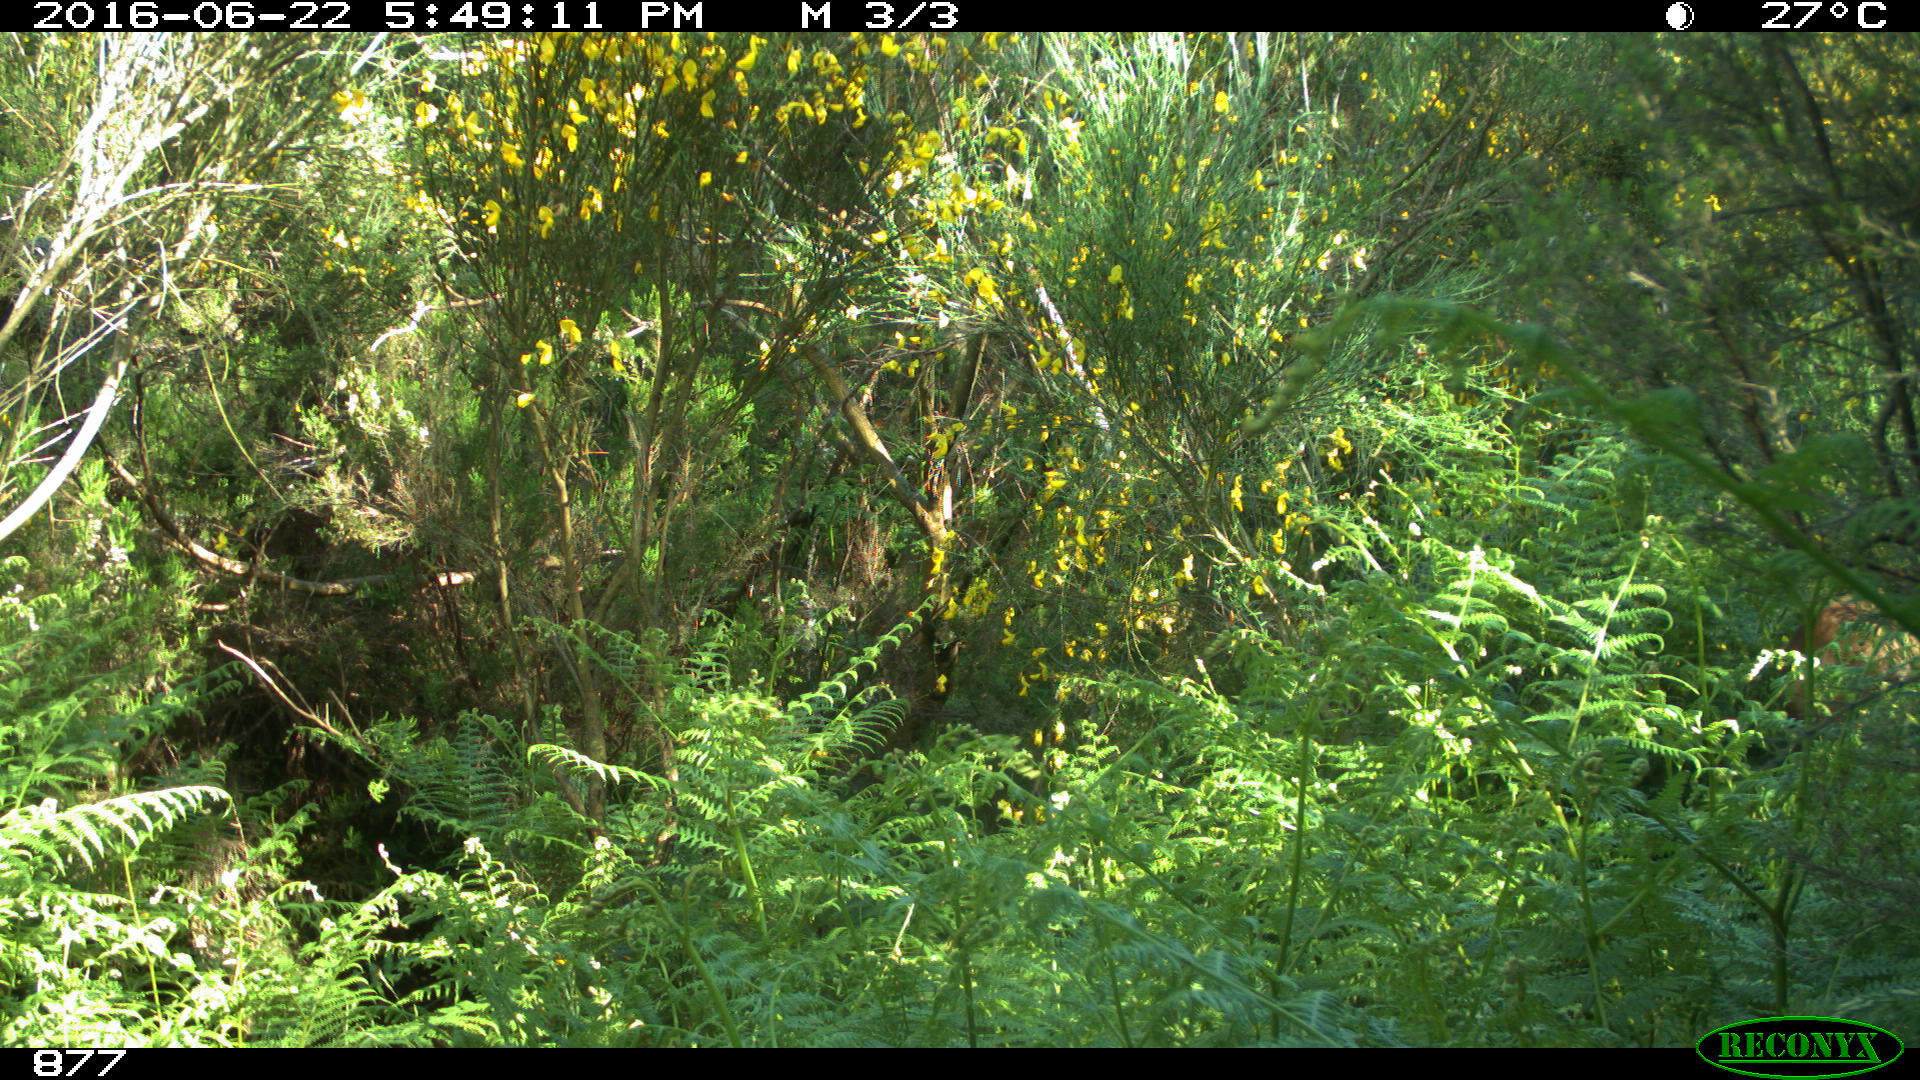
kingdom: Animalia
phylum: Chordata
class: Mammalia
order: Artiodactyla
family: Cervidae
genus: Capreolus
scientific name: Capreolus capreolus
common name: Western roe deer
